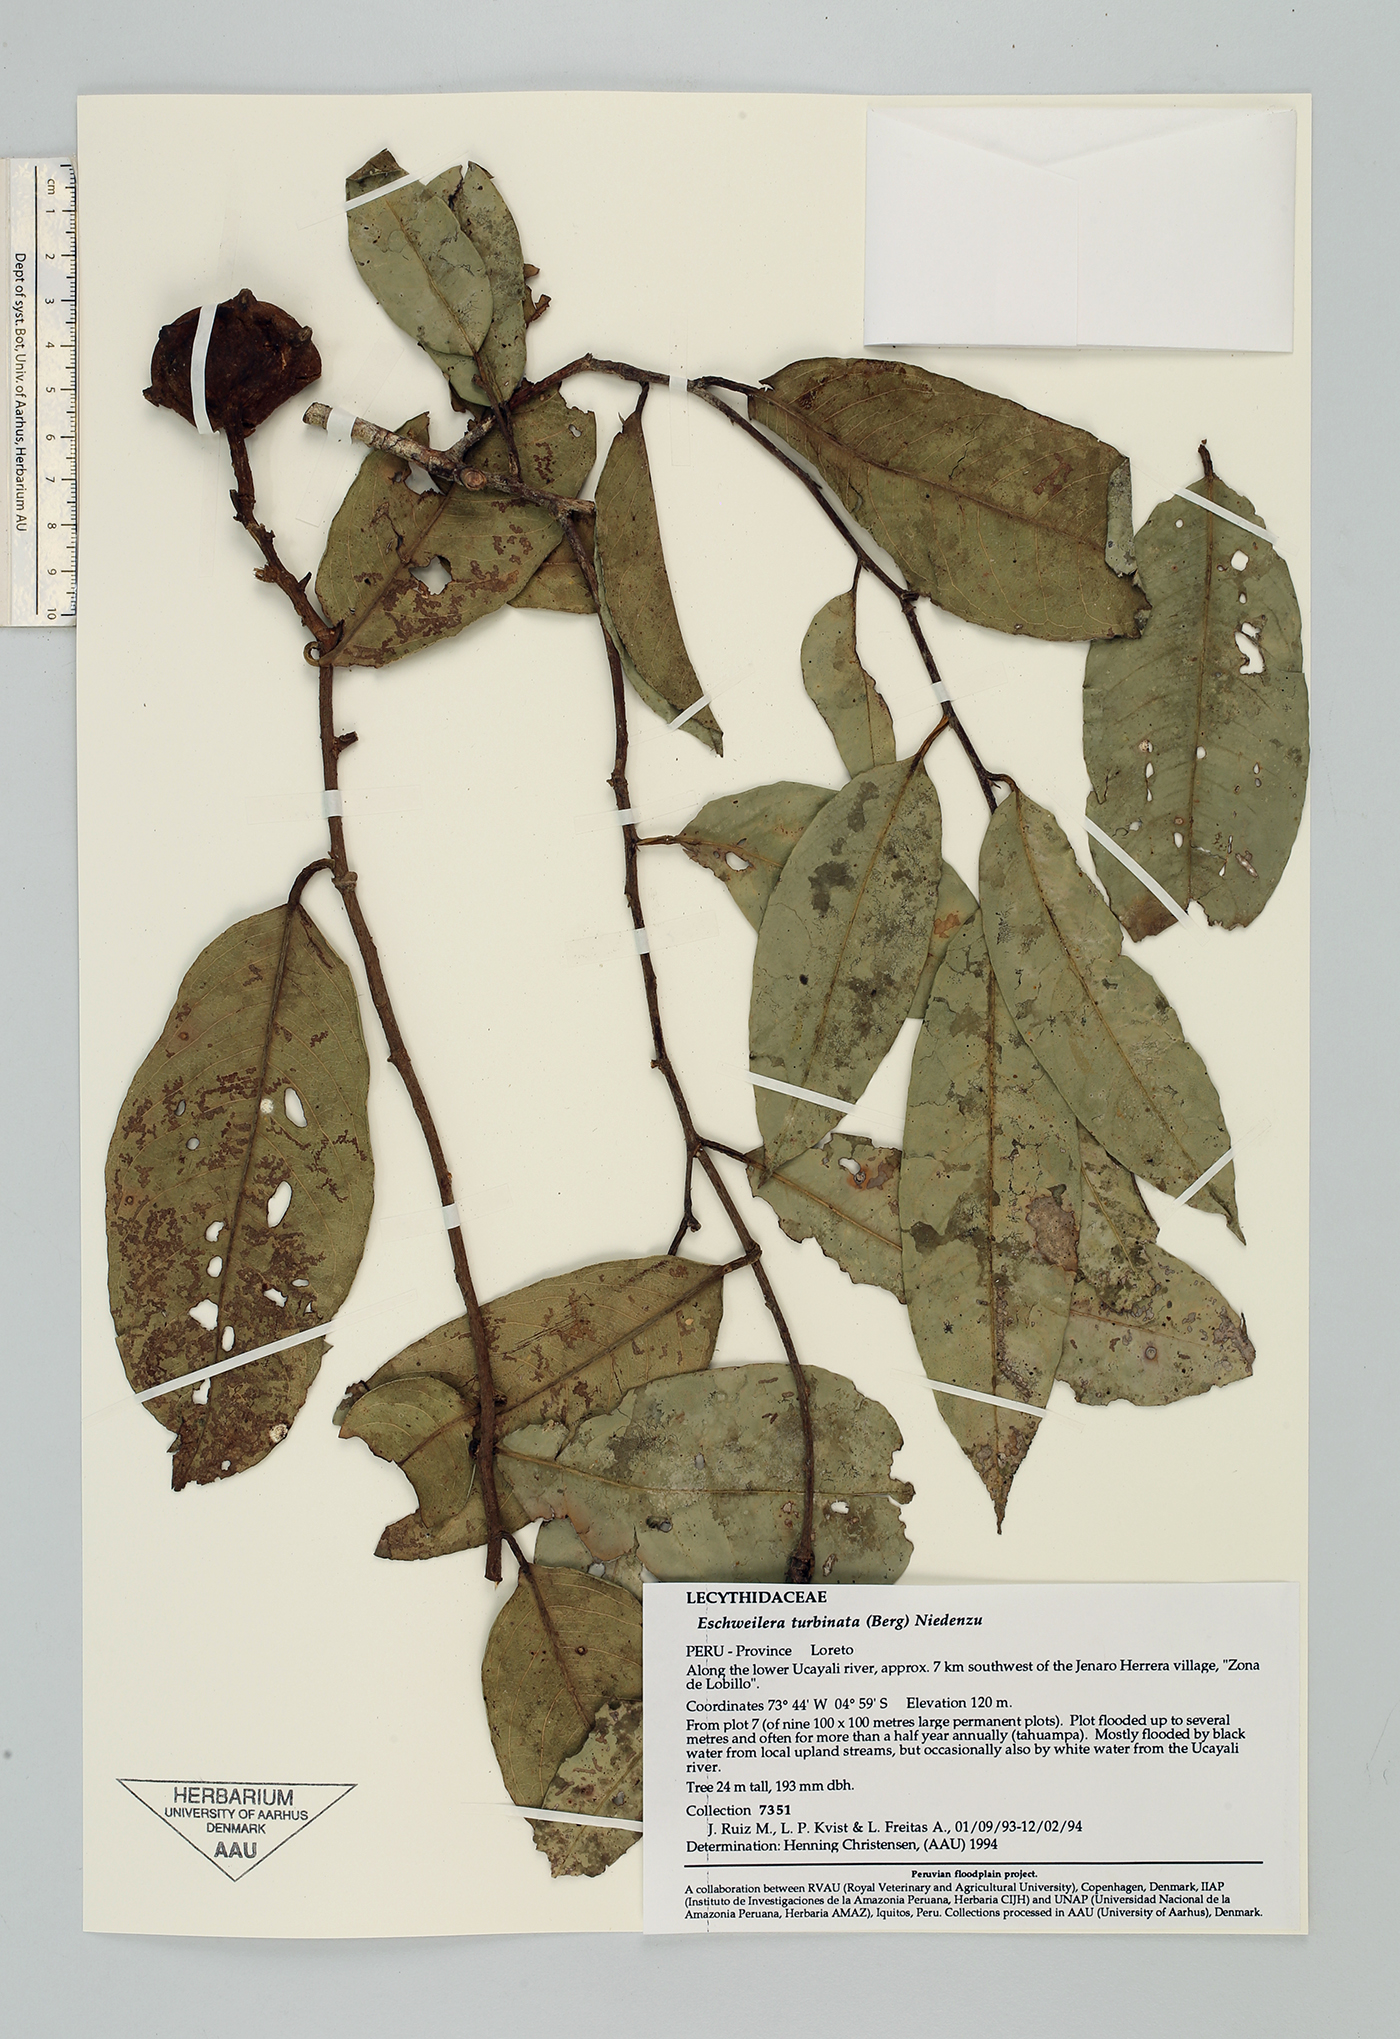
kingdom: Plantae
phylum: Tracheophyta
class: Magnoliopsida
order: Ericales
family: Lecythidaceae
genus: Eschweilera
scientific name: Eschweilera albiflora
